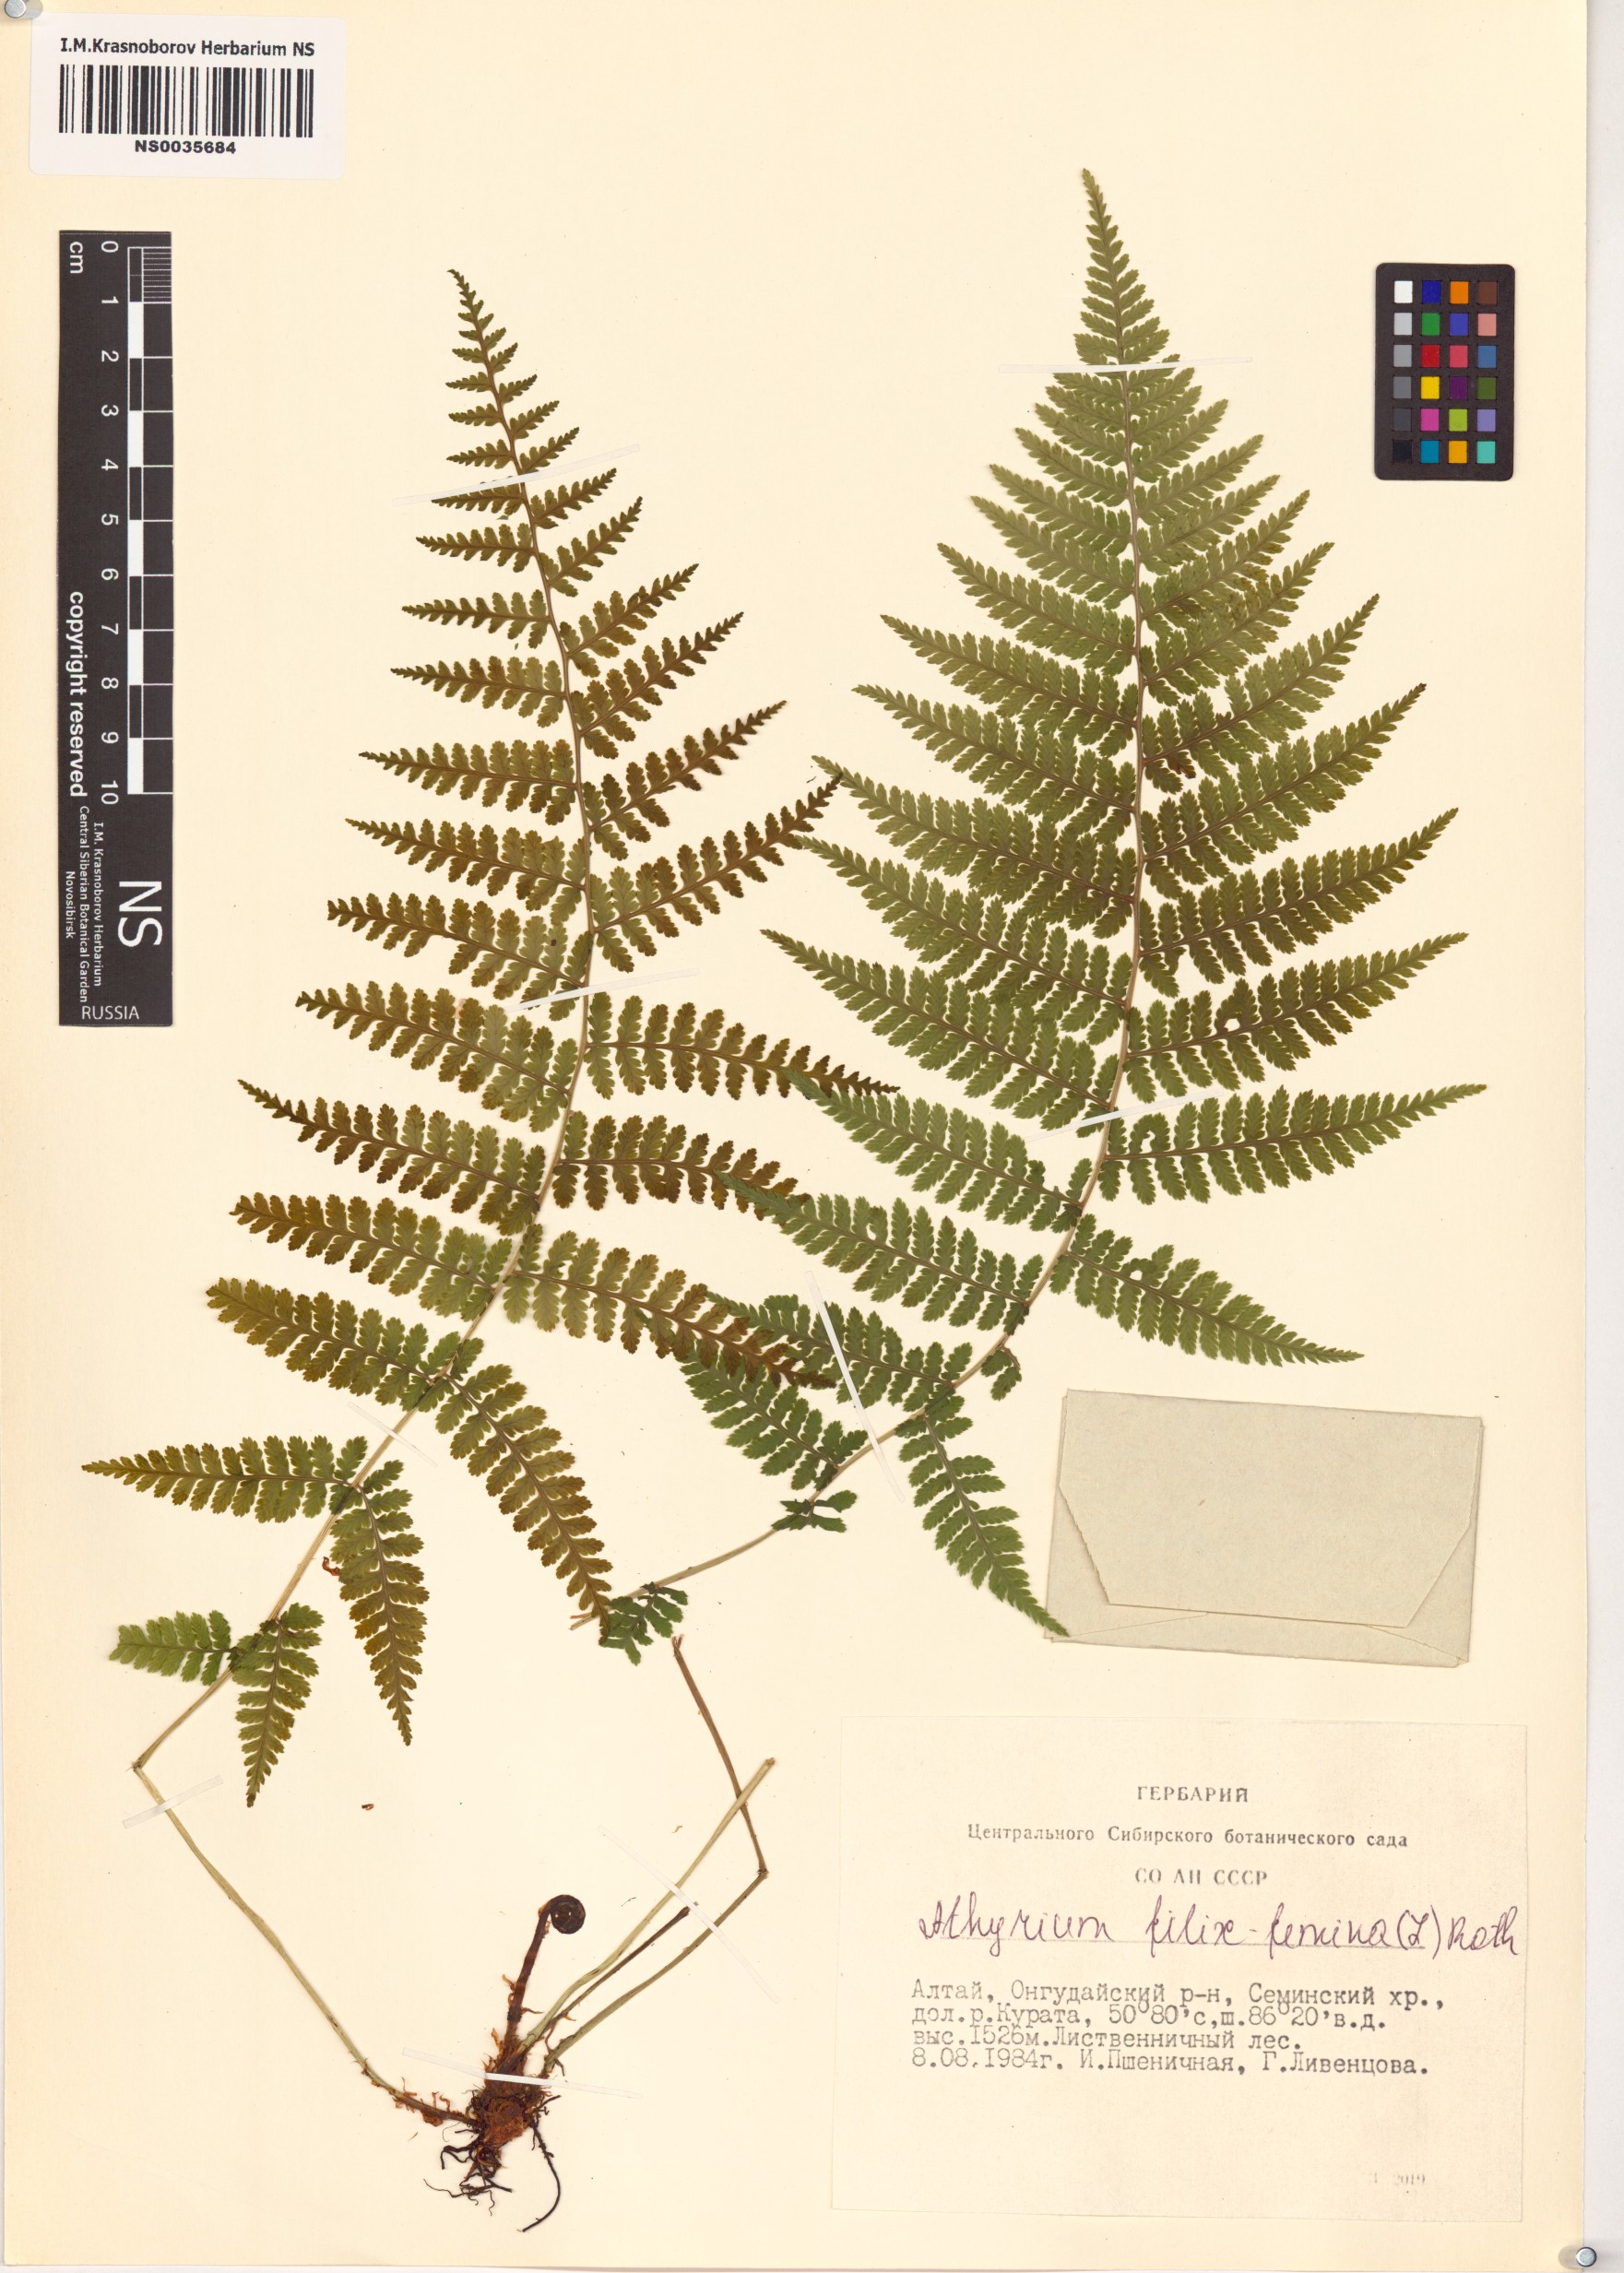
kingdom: Plantae
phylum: Tracheophyta
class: Polypodiopsida
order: Polypodiales
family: Athyriaceae
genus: Athyrium
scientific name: Athyrium filix-femina
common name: Lady fern
